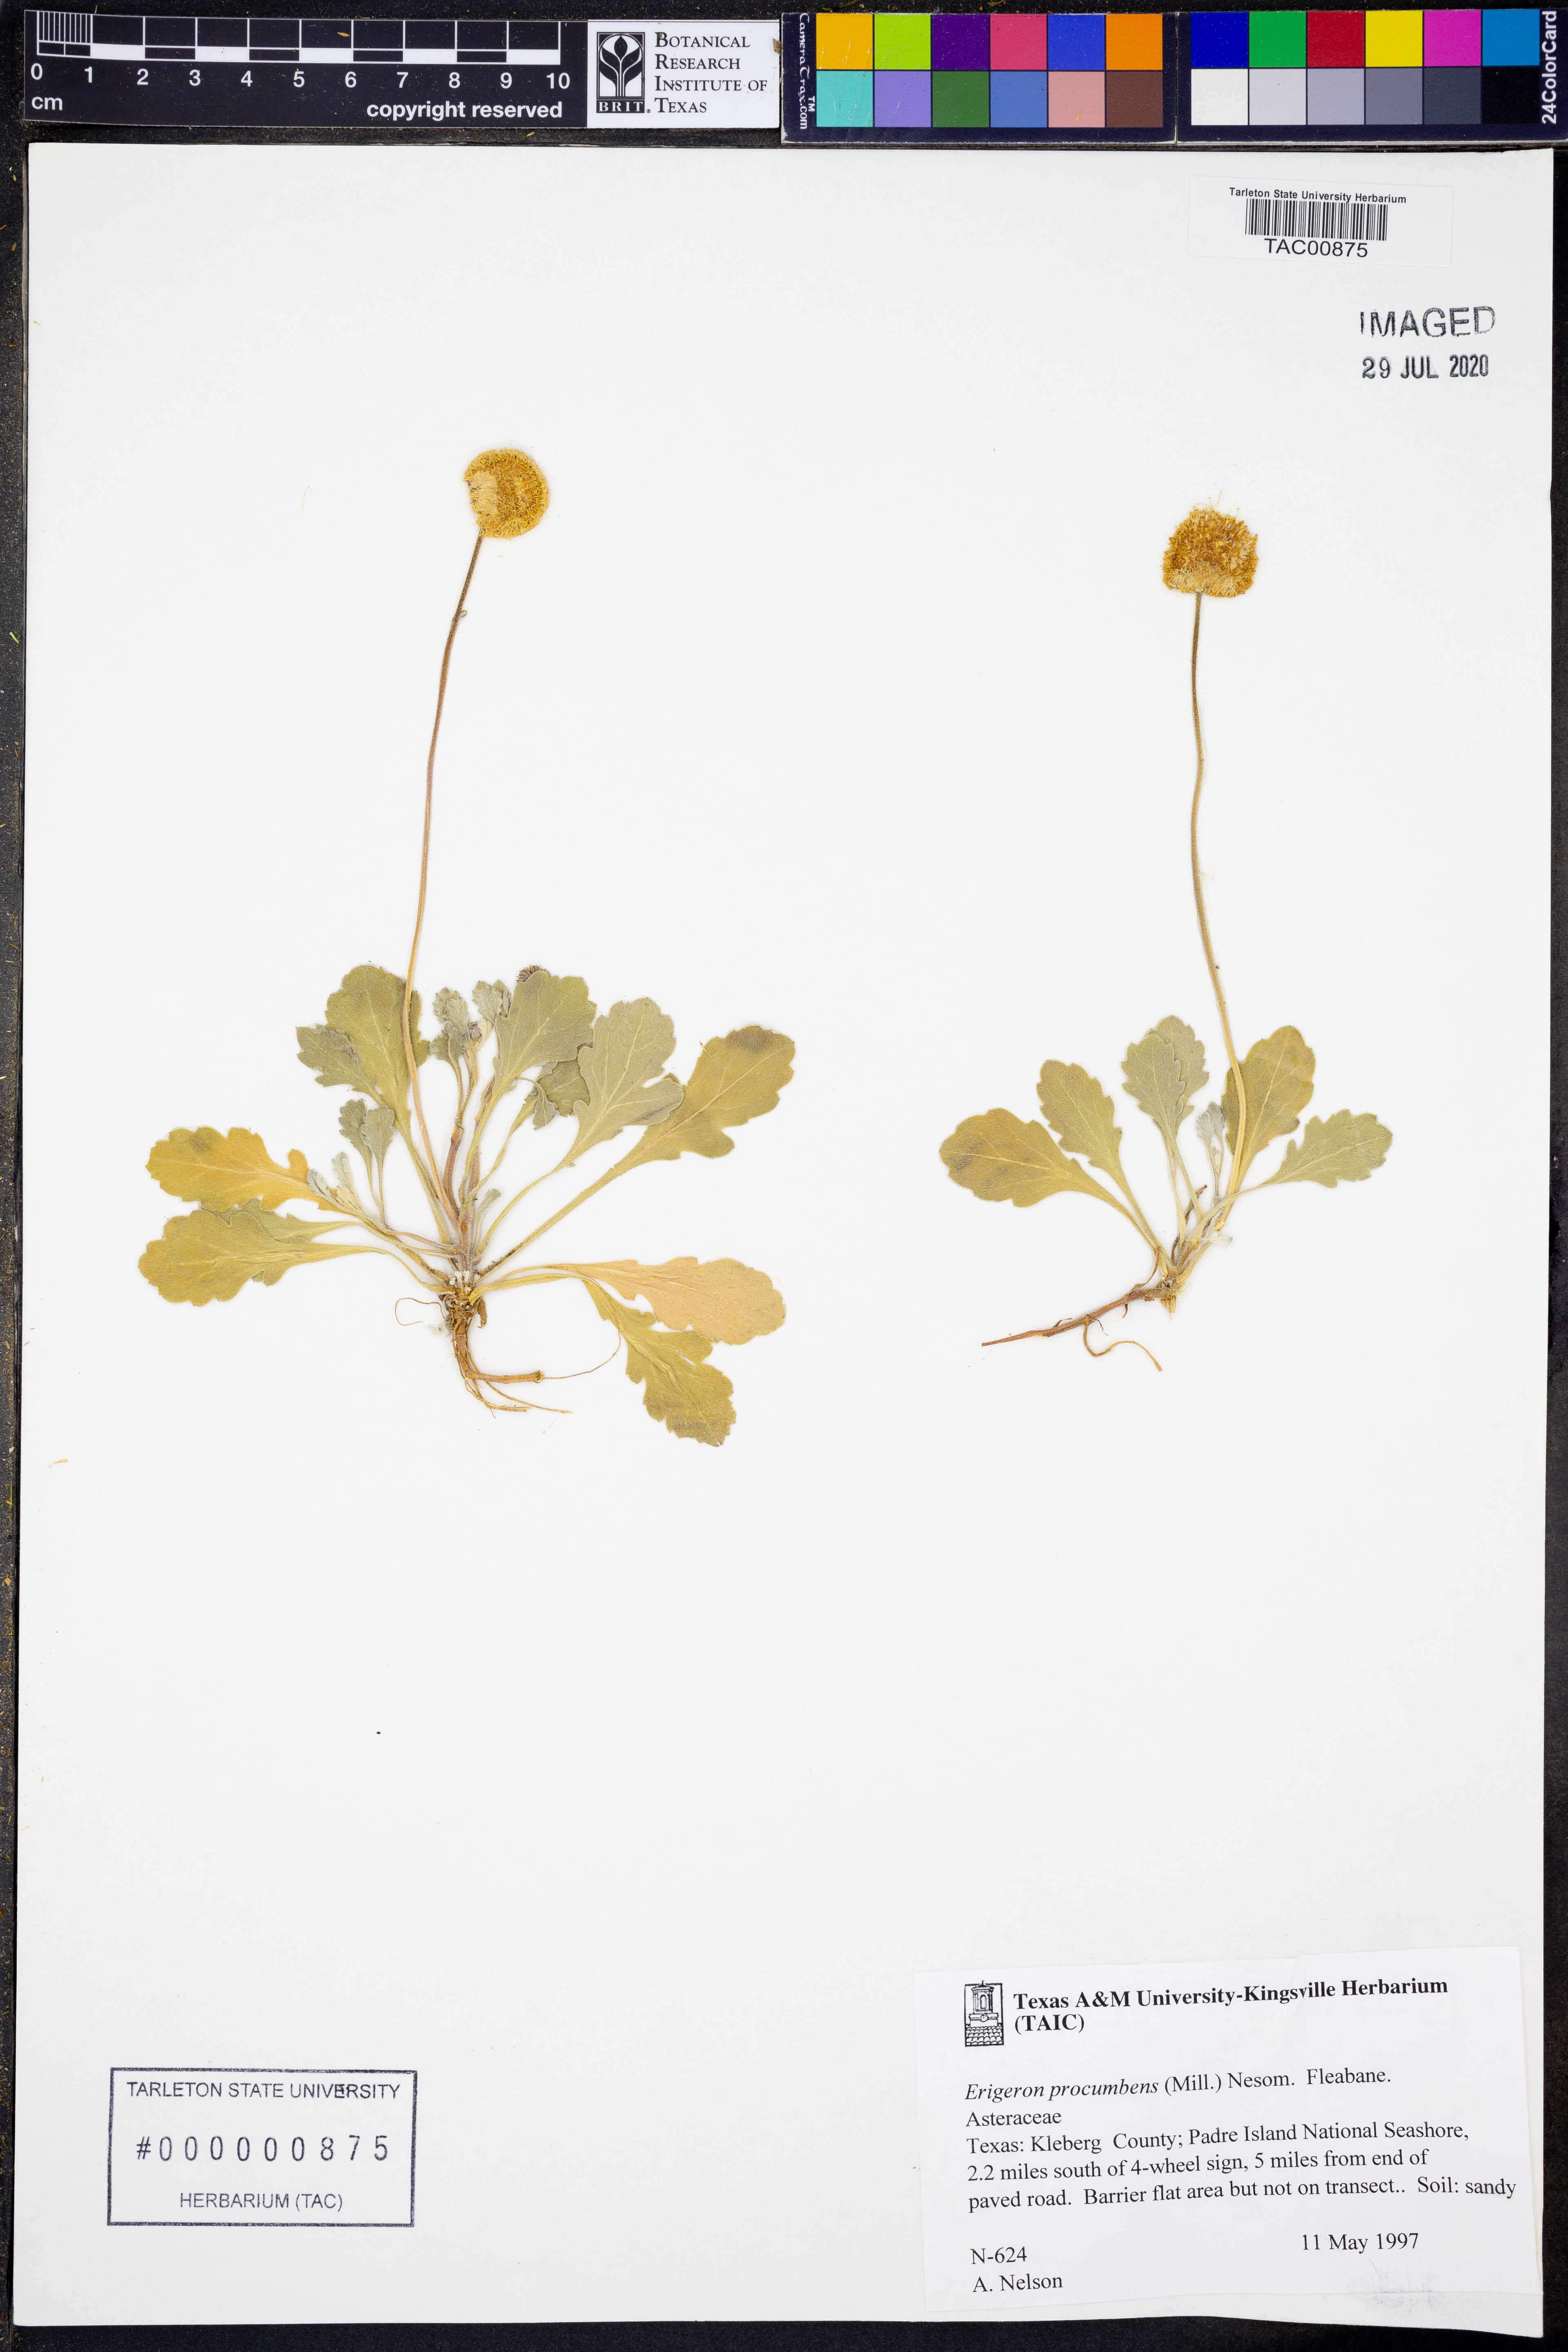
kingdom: Plantae
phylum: Tracheophyta
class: Magnoliopsida
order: Asterales
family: Asteraceae
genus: Erigeron
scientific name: Erigeron procumbens
